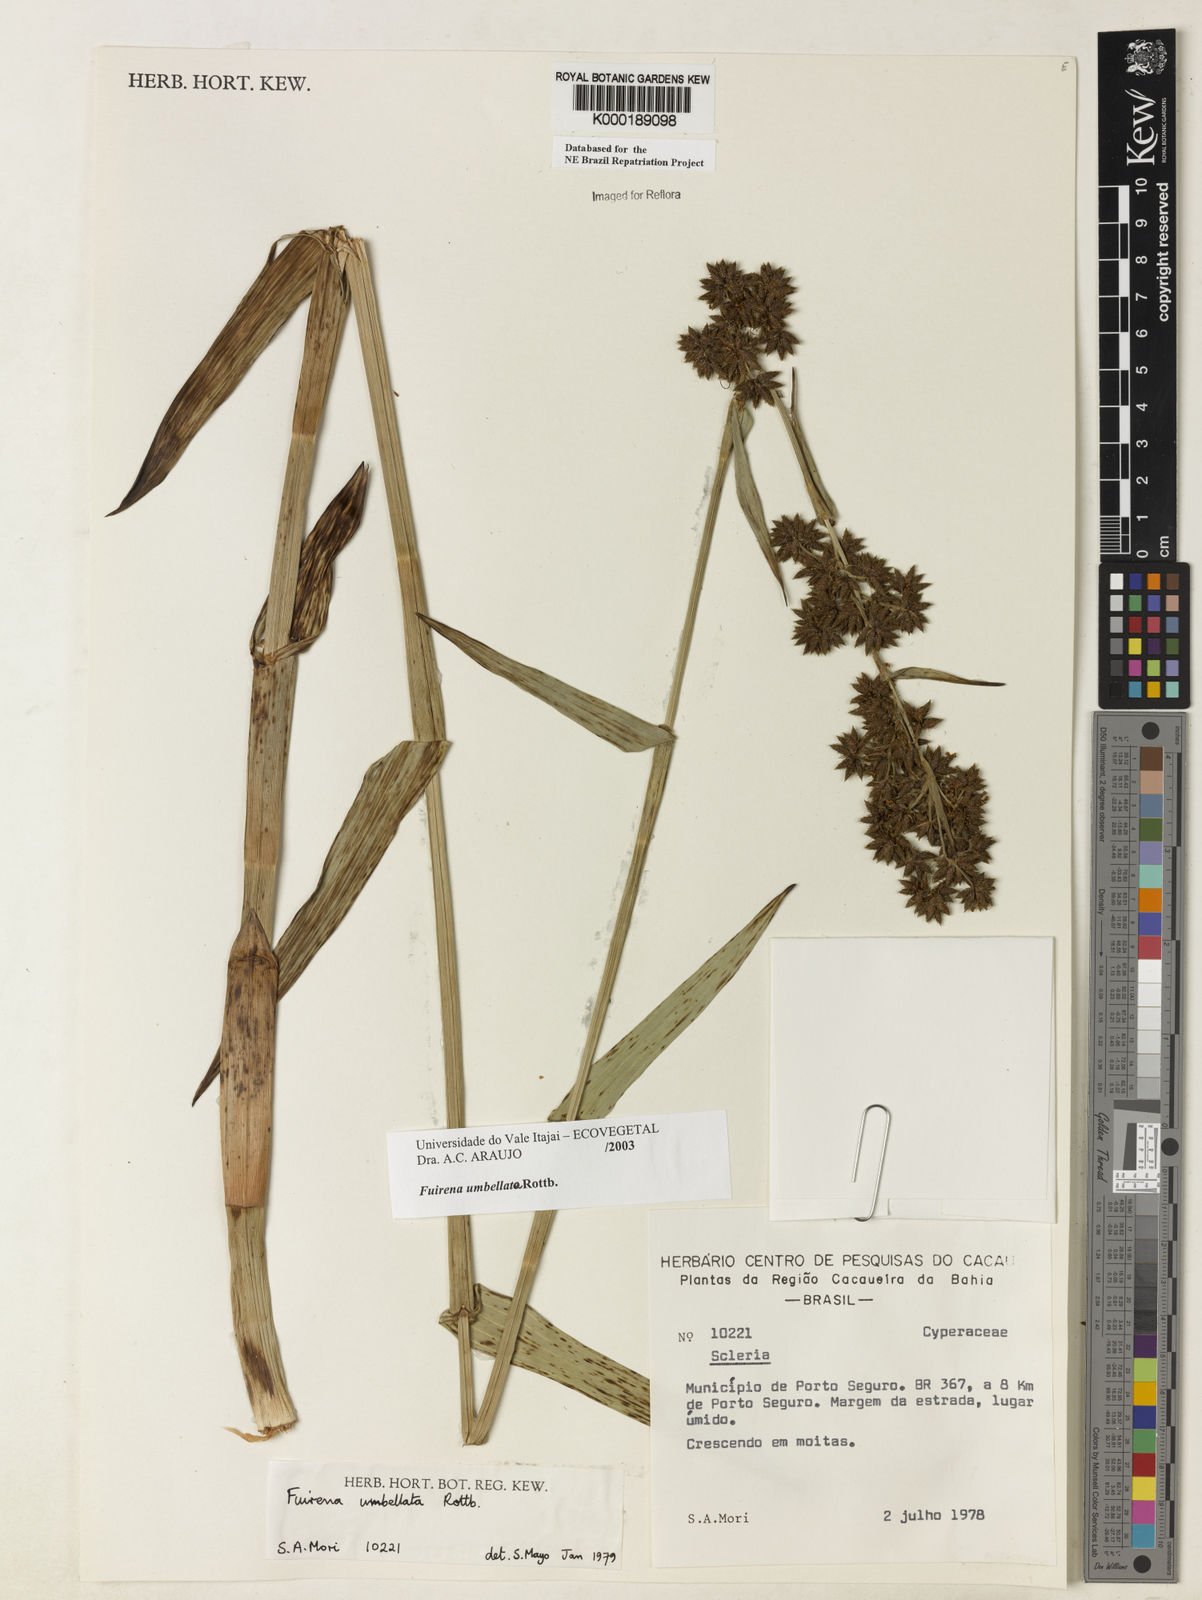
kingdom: Plantae
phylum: Tracheophyta
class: Liliopsida
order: Poales
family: Cyperaceae
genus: Fuirena
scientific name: Fuirena umbellata
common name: Yefen
